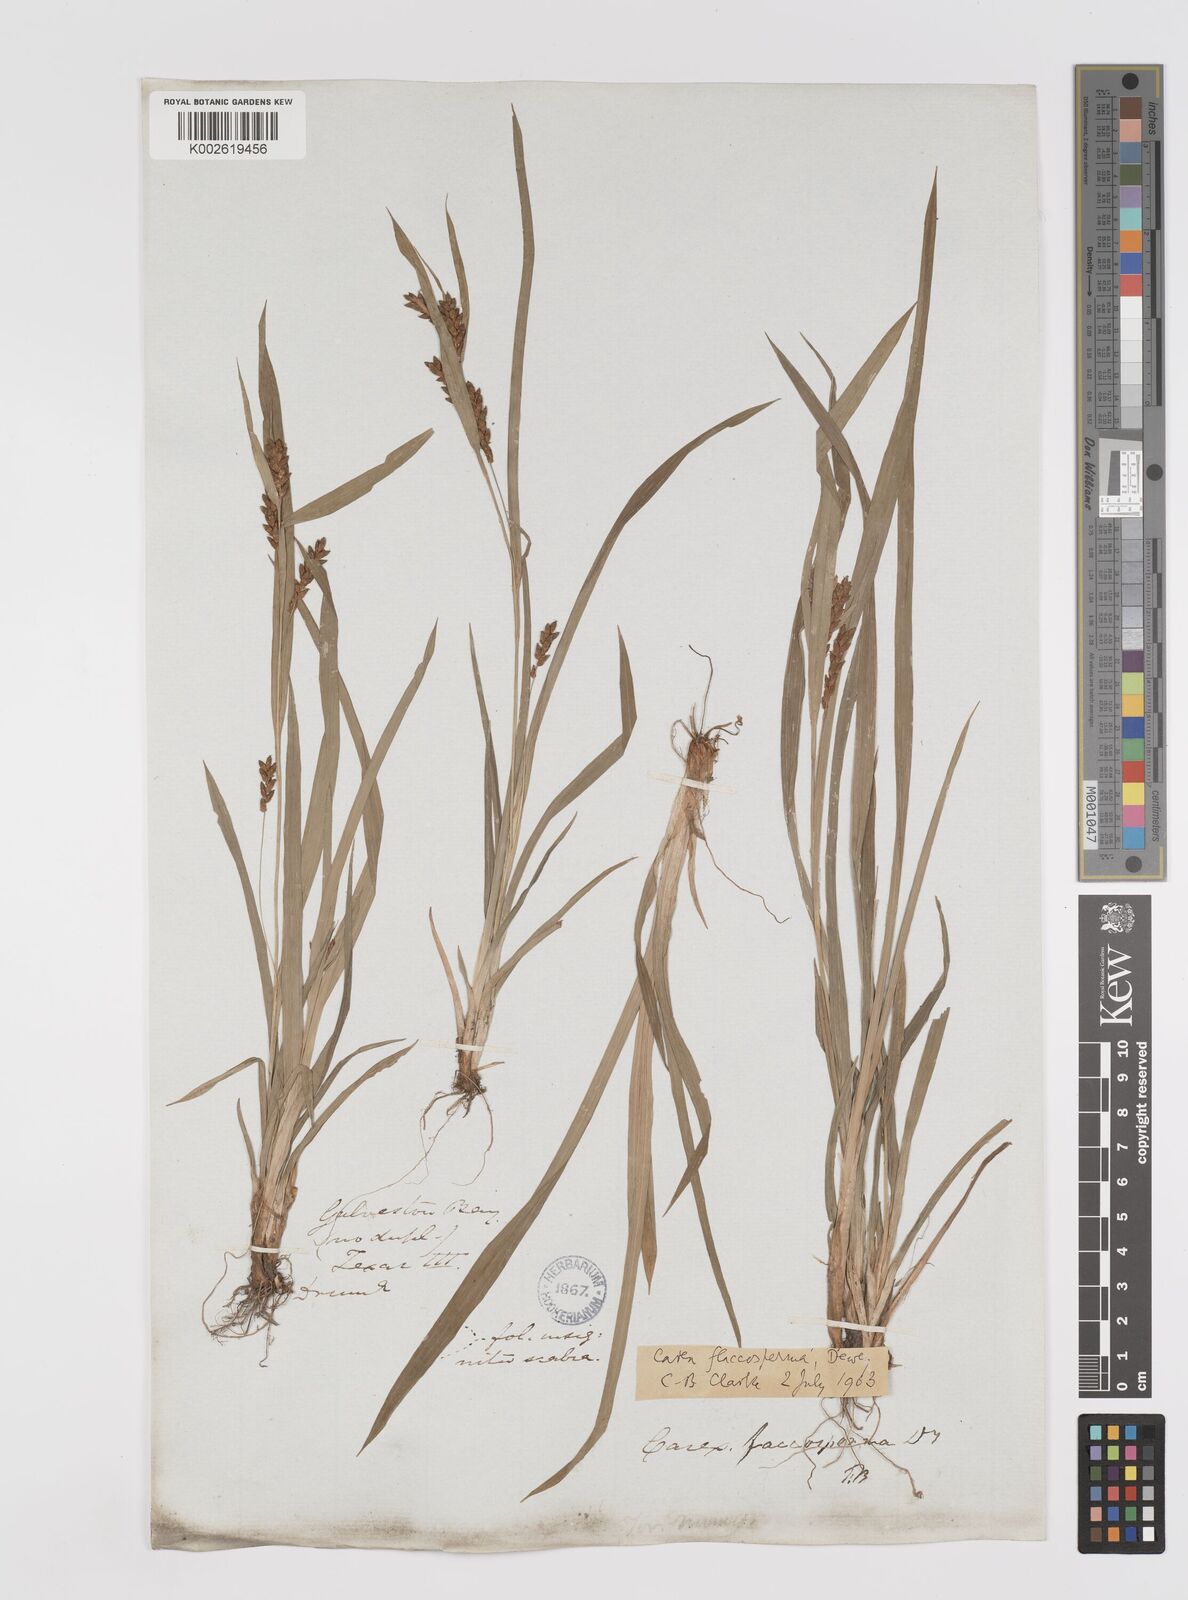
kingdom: Plantae
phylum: Tracheophyta
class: Liliopsida
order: Poales
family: Cyperaceae
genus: Carex
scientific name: Carex flaccosperma
